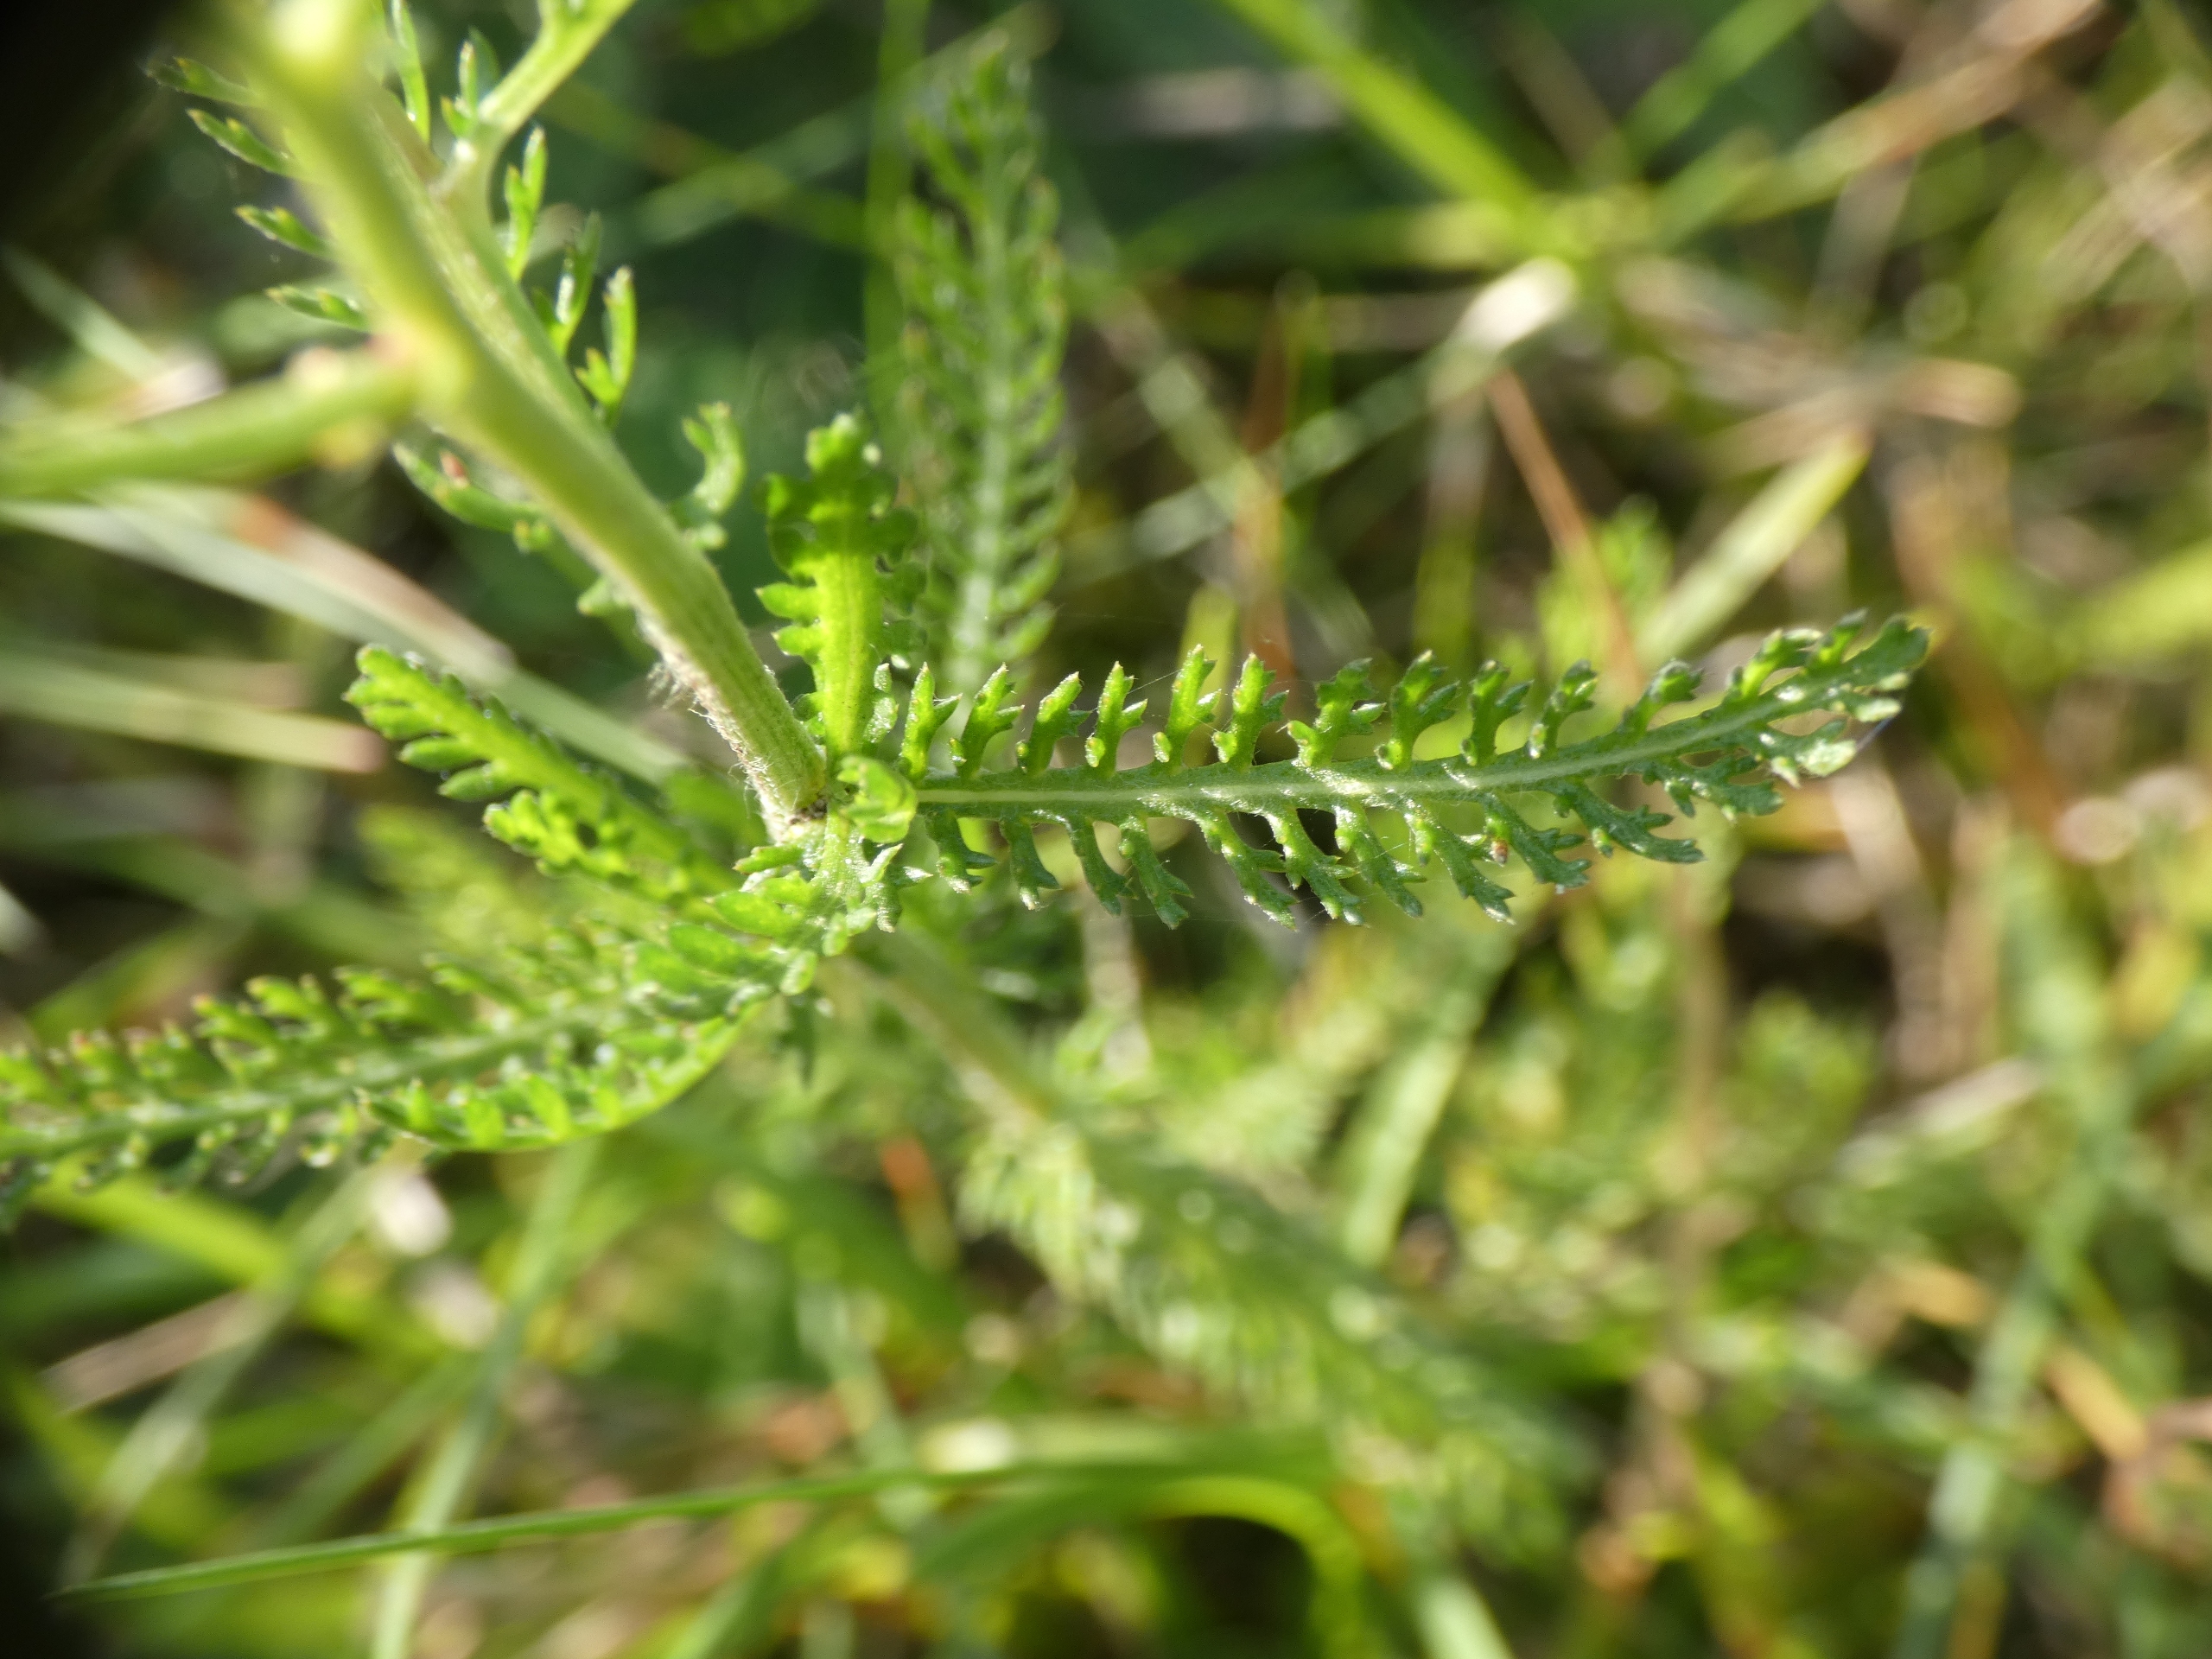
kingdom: Plantae
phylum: Tracheophyta
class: Magnoliopsida
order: Asterales
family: Asteraceae
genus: Achillea
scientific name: Achillea millefolium
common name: Almindelig røllike
